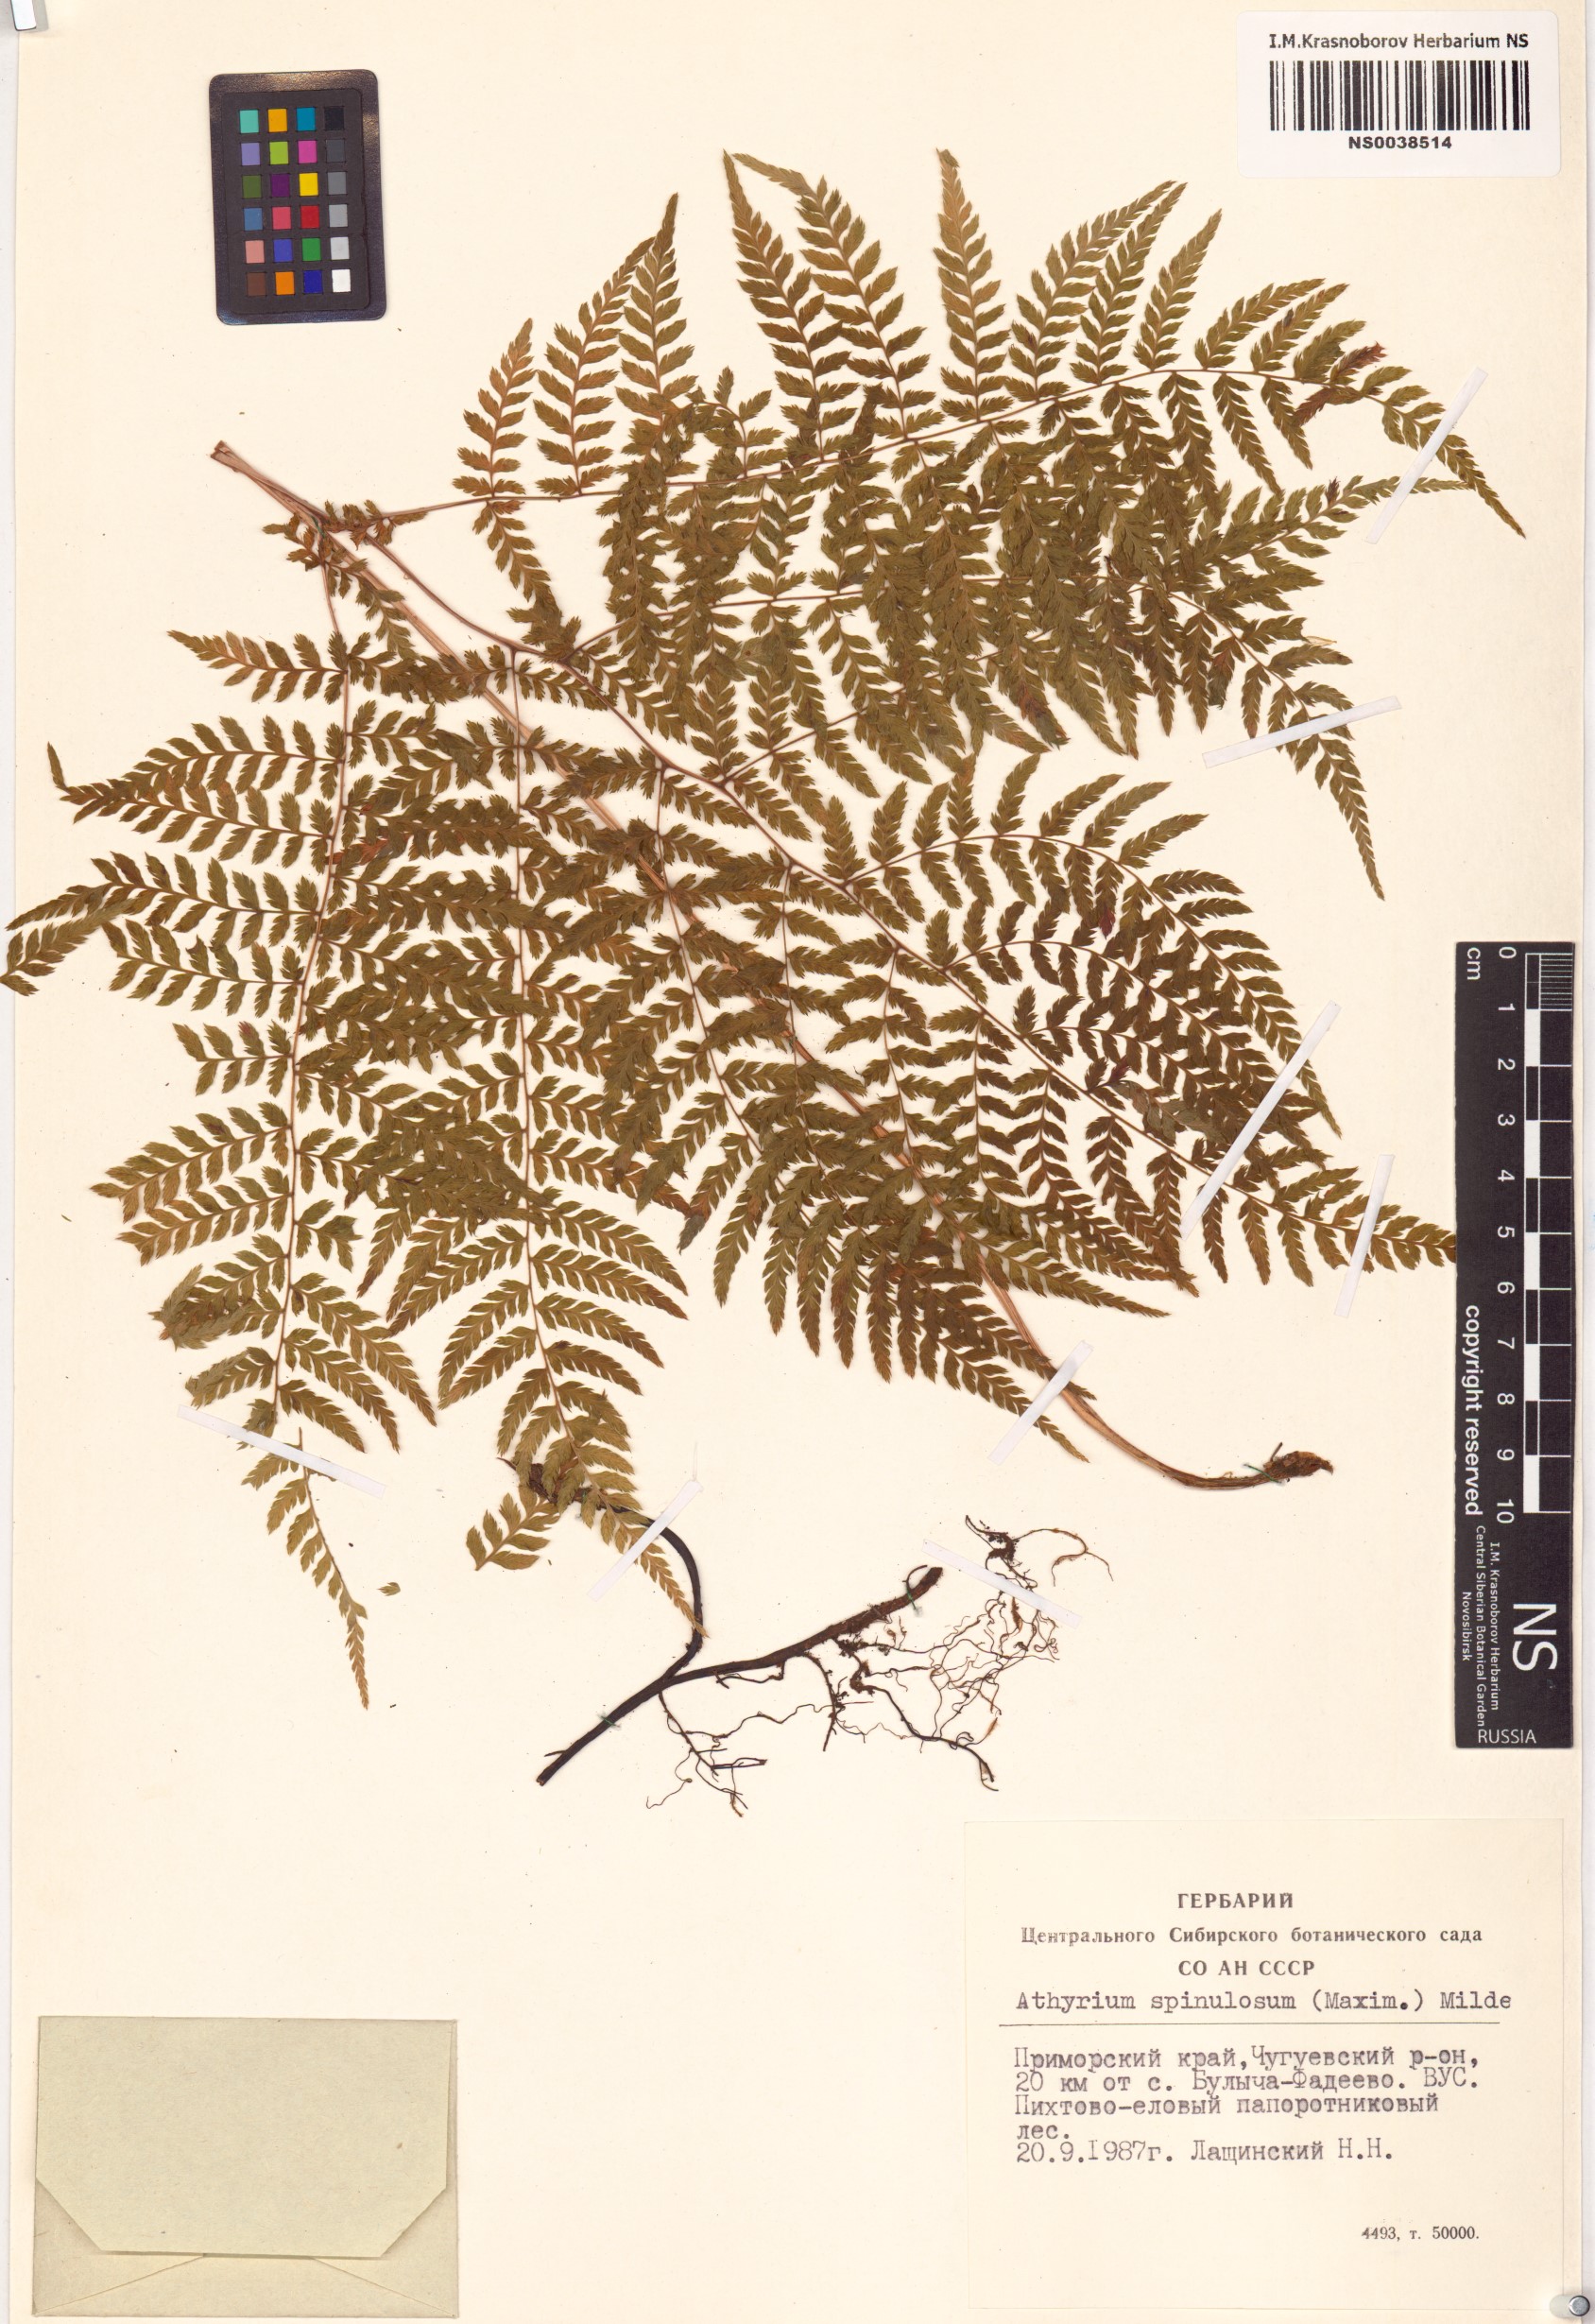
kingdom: Plantae
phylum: Tracheophyta
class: Polypodiopsida
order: Polypodiales
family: Athyriaceae
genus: Athyrium
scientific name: Athyrium spinulosum
